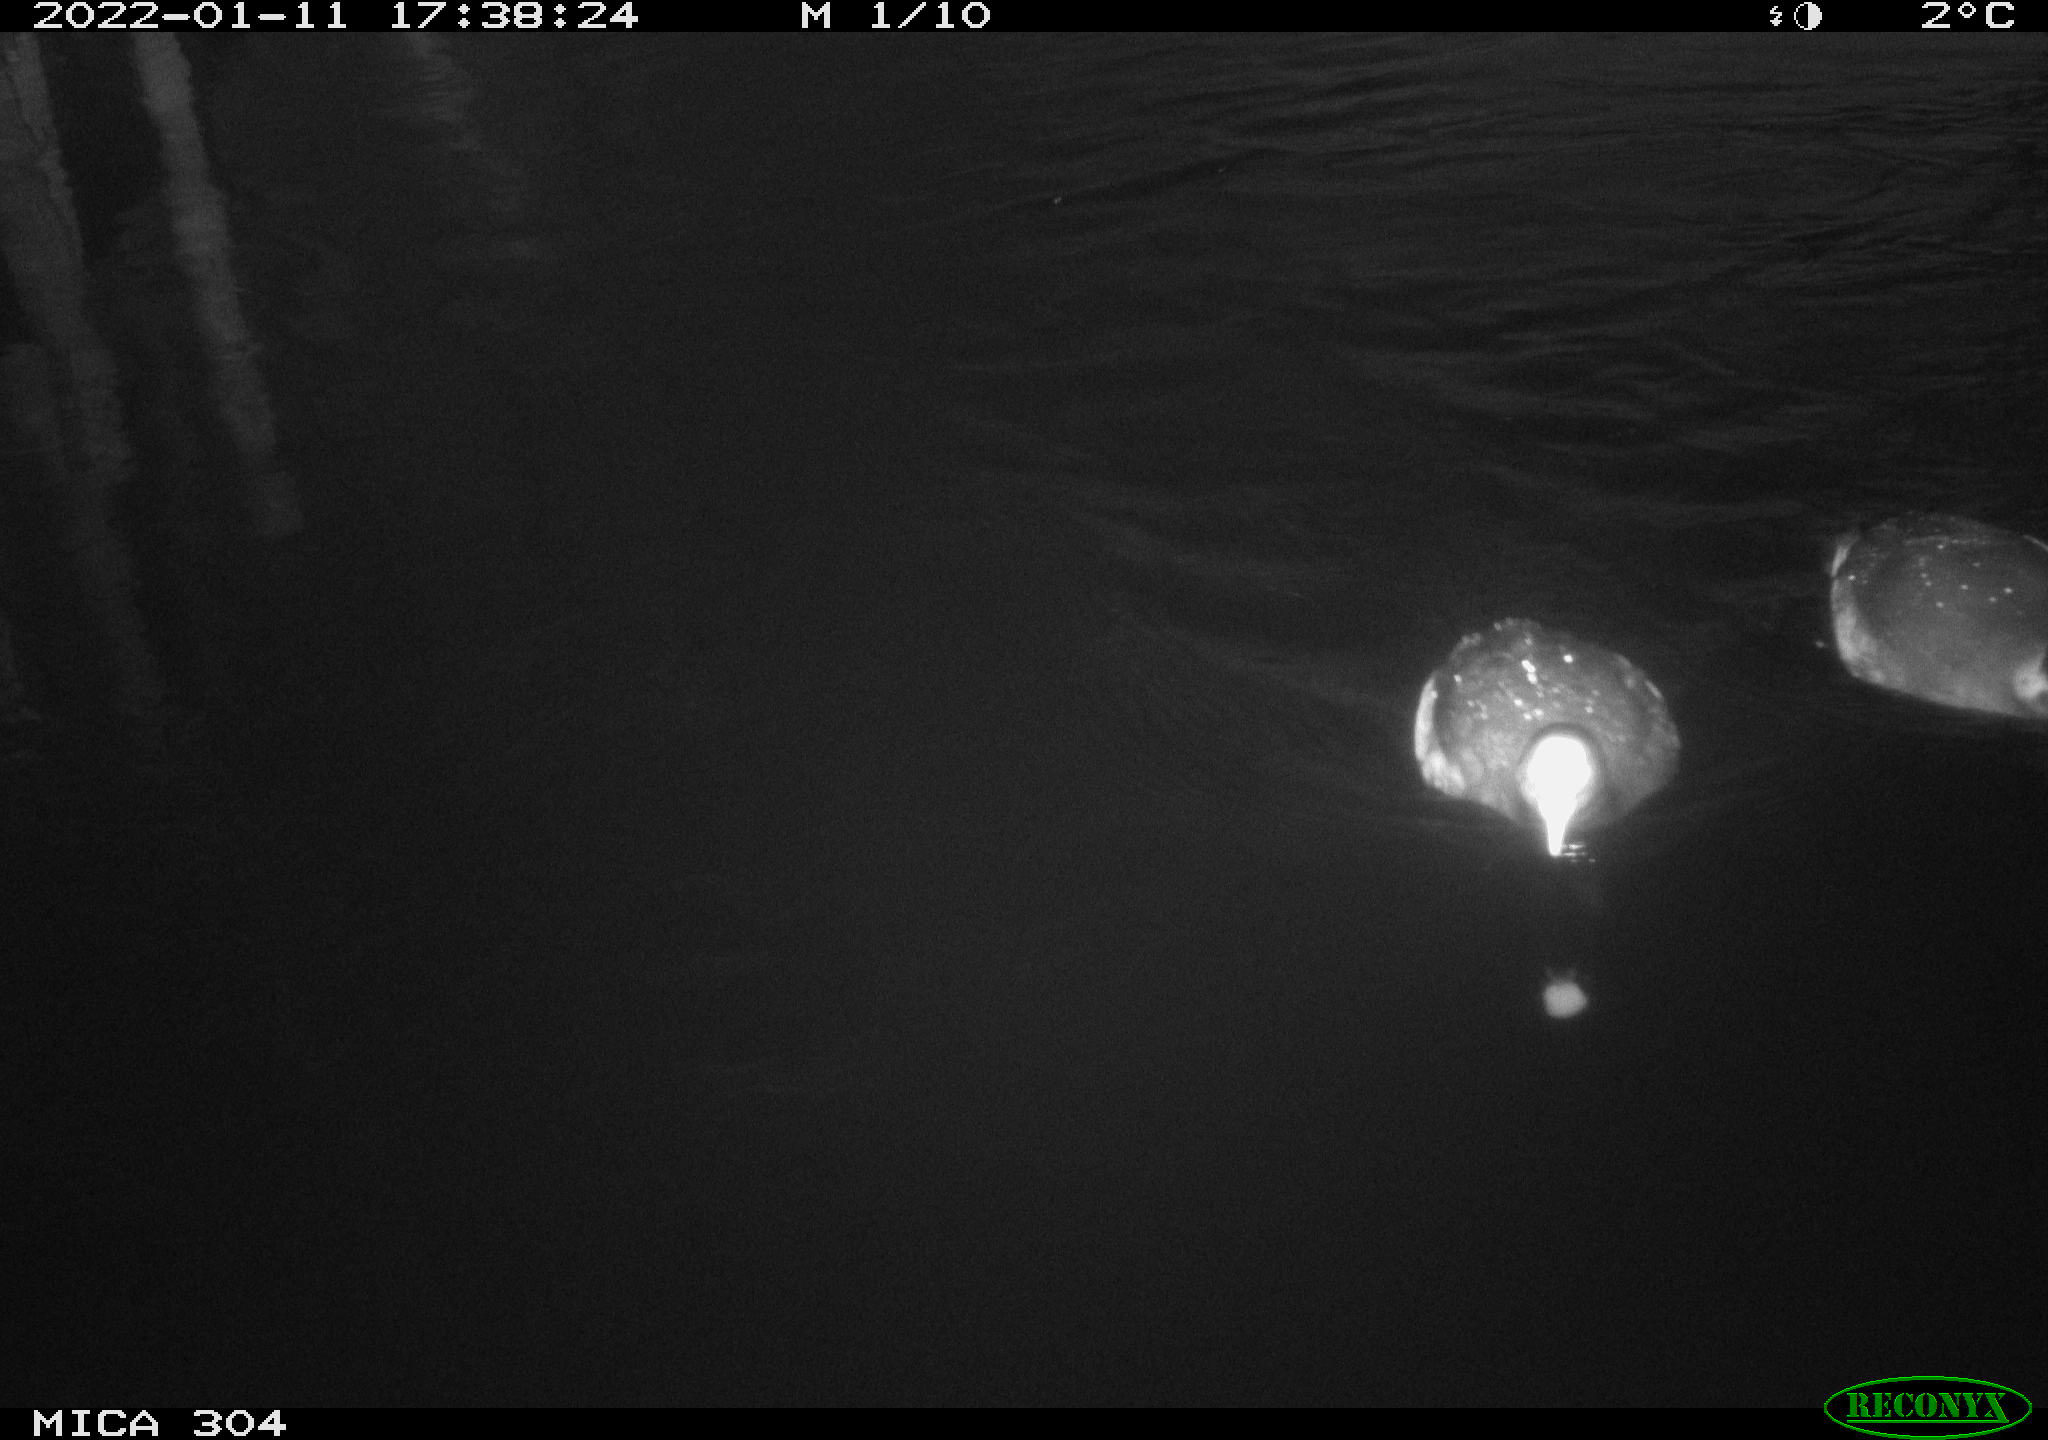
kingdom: Animalia
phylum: Chordata
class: Aves
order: Anseriformes
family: Anatidae
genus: Anas
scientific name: Anas
